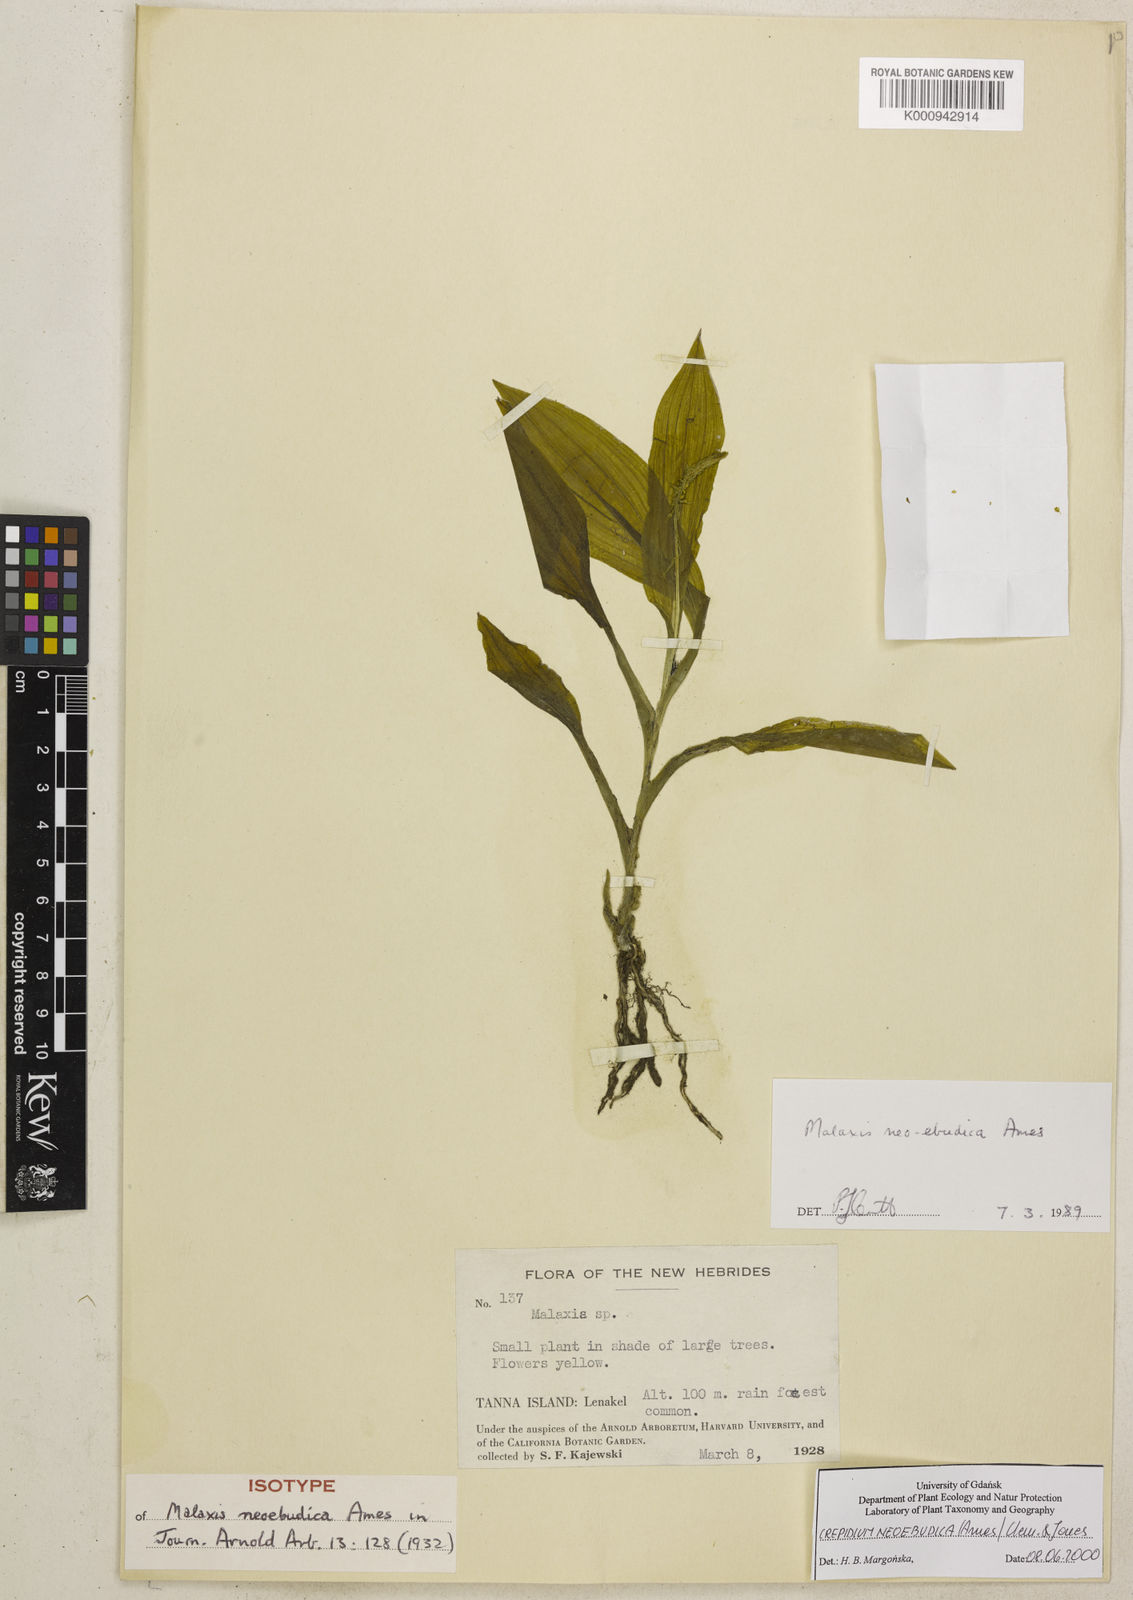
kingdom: Plantae
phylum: Tracheophyta
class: Liliopsida
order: Asparagales
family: Orchidaceae
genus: Crepidium
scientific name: Crepidium xanthochilum
